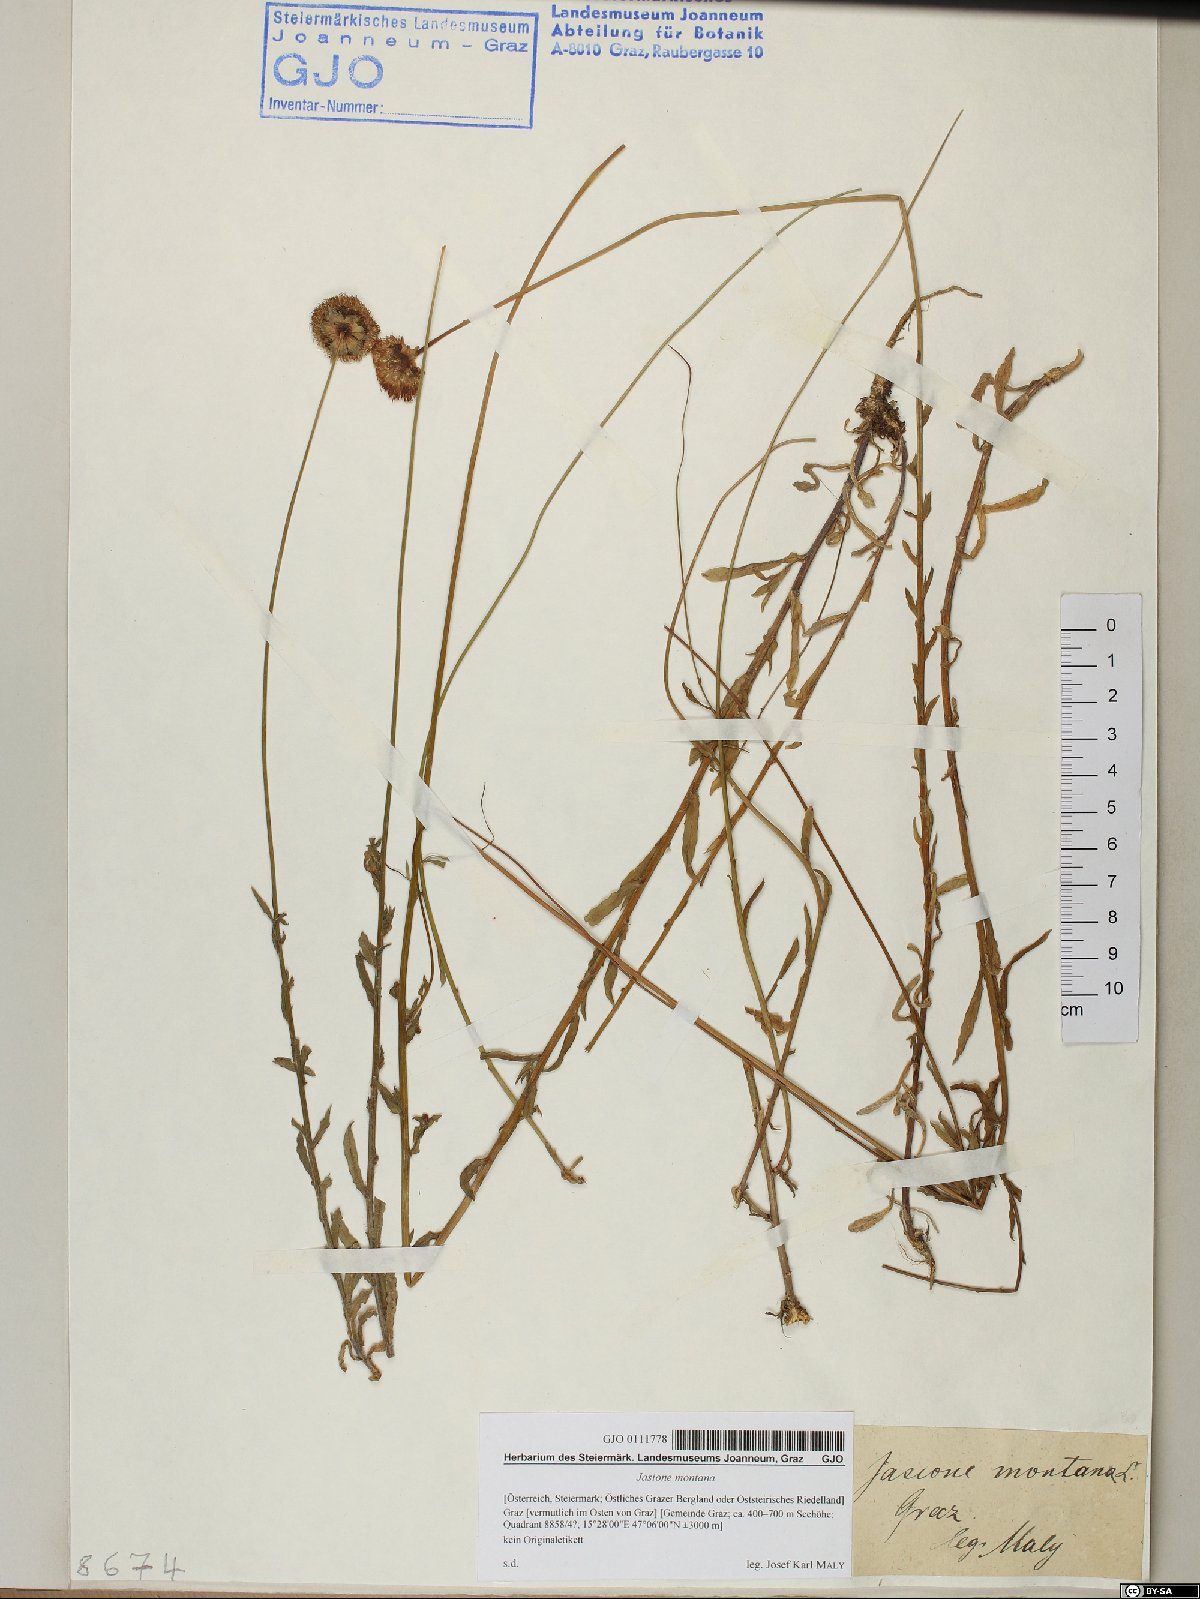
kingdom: Plantae
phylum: Tracheophyta
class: Magnoliopsida
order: Asterales
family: Campanulaceae
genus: Jasione
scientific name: Jasione montana
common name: Sheep's-bit
